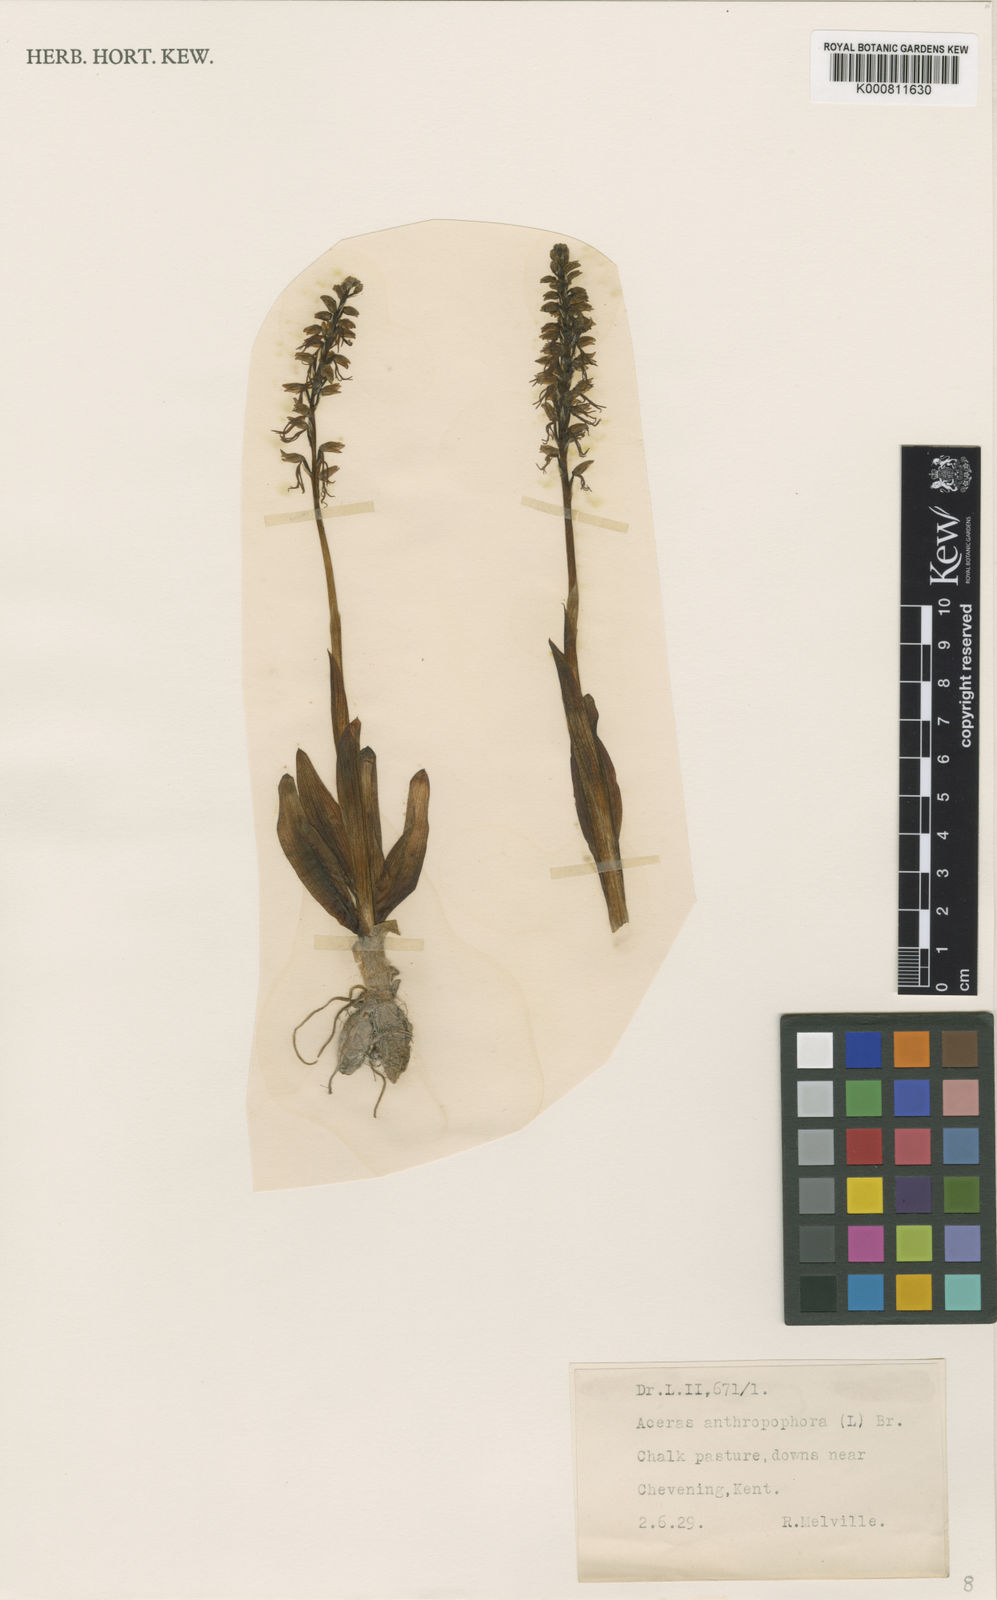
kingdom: Plantae
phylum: Tracheophyta
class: Liliopsida
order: Asparagales
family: Orchidaceae
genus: Orchis
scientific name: Orchis
